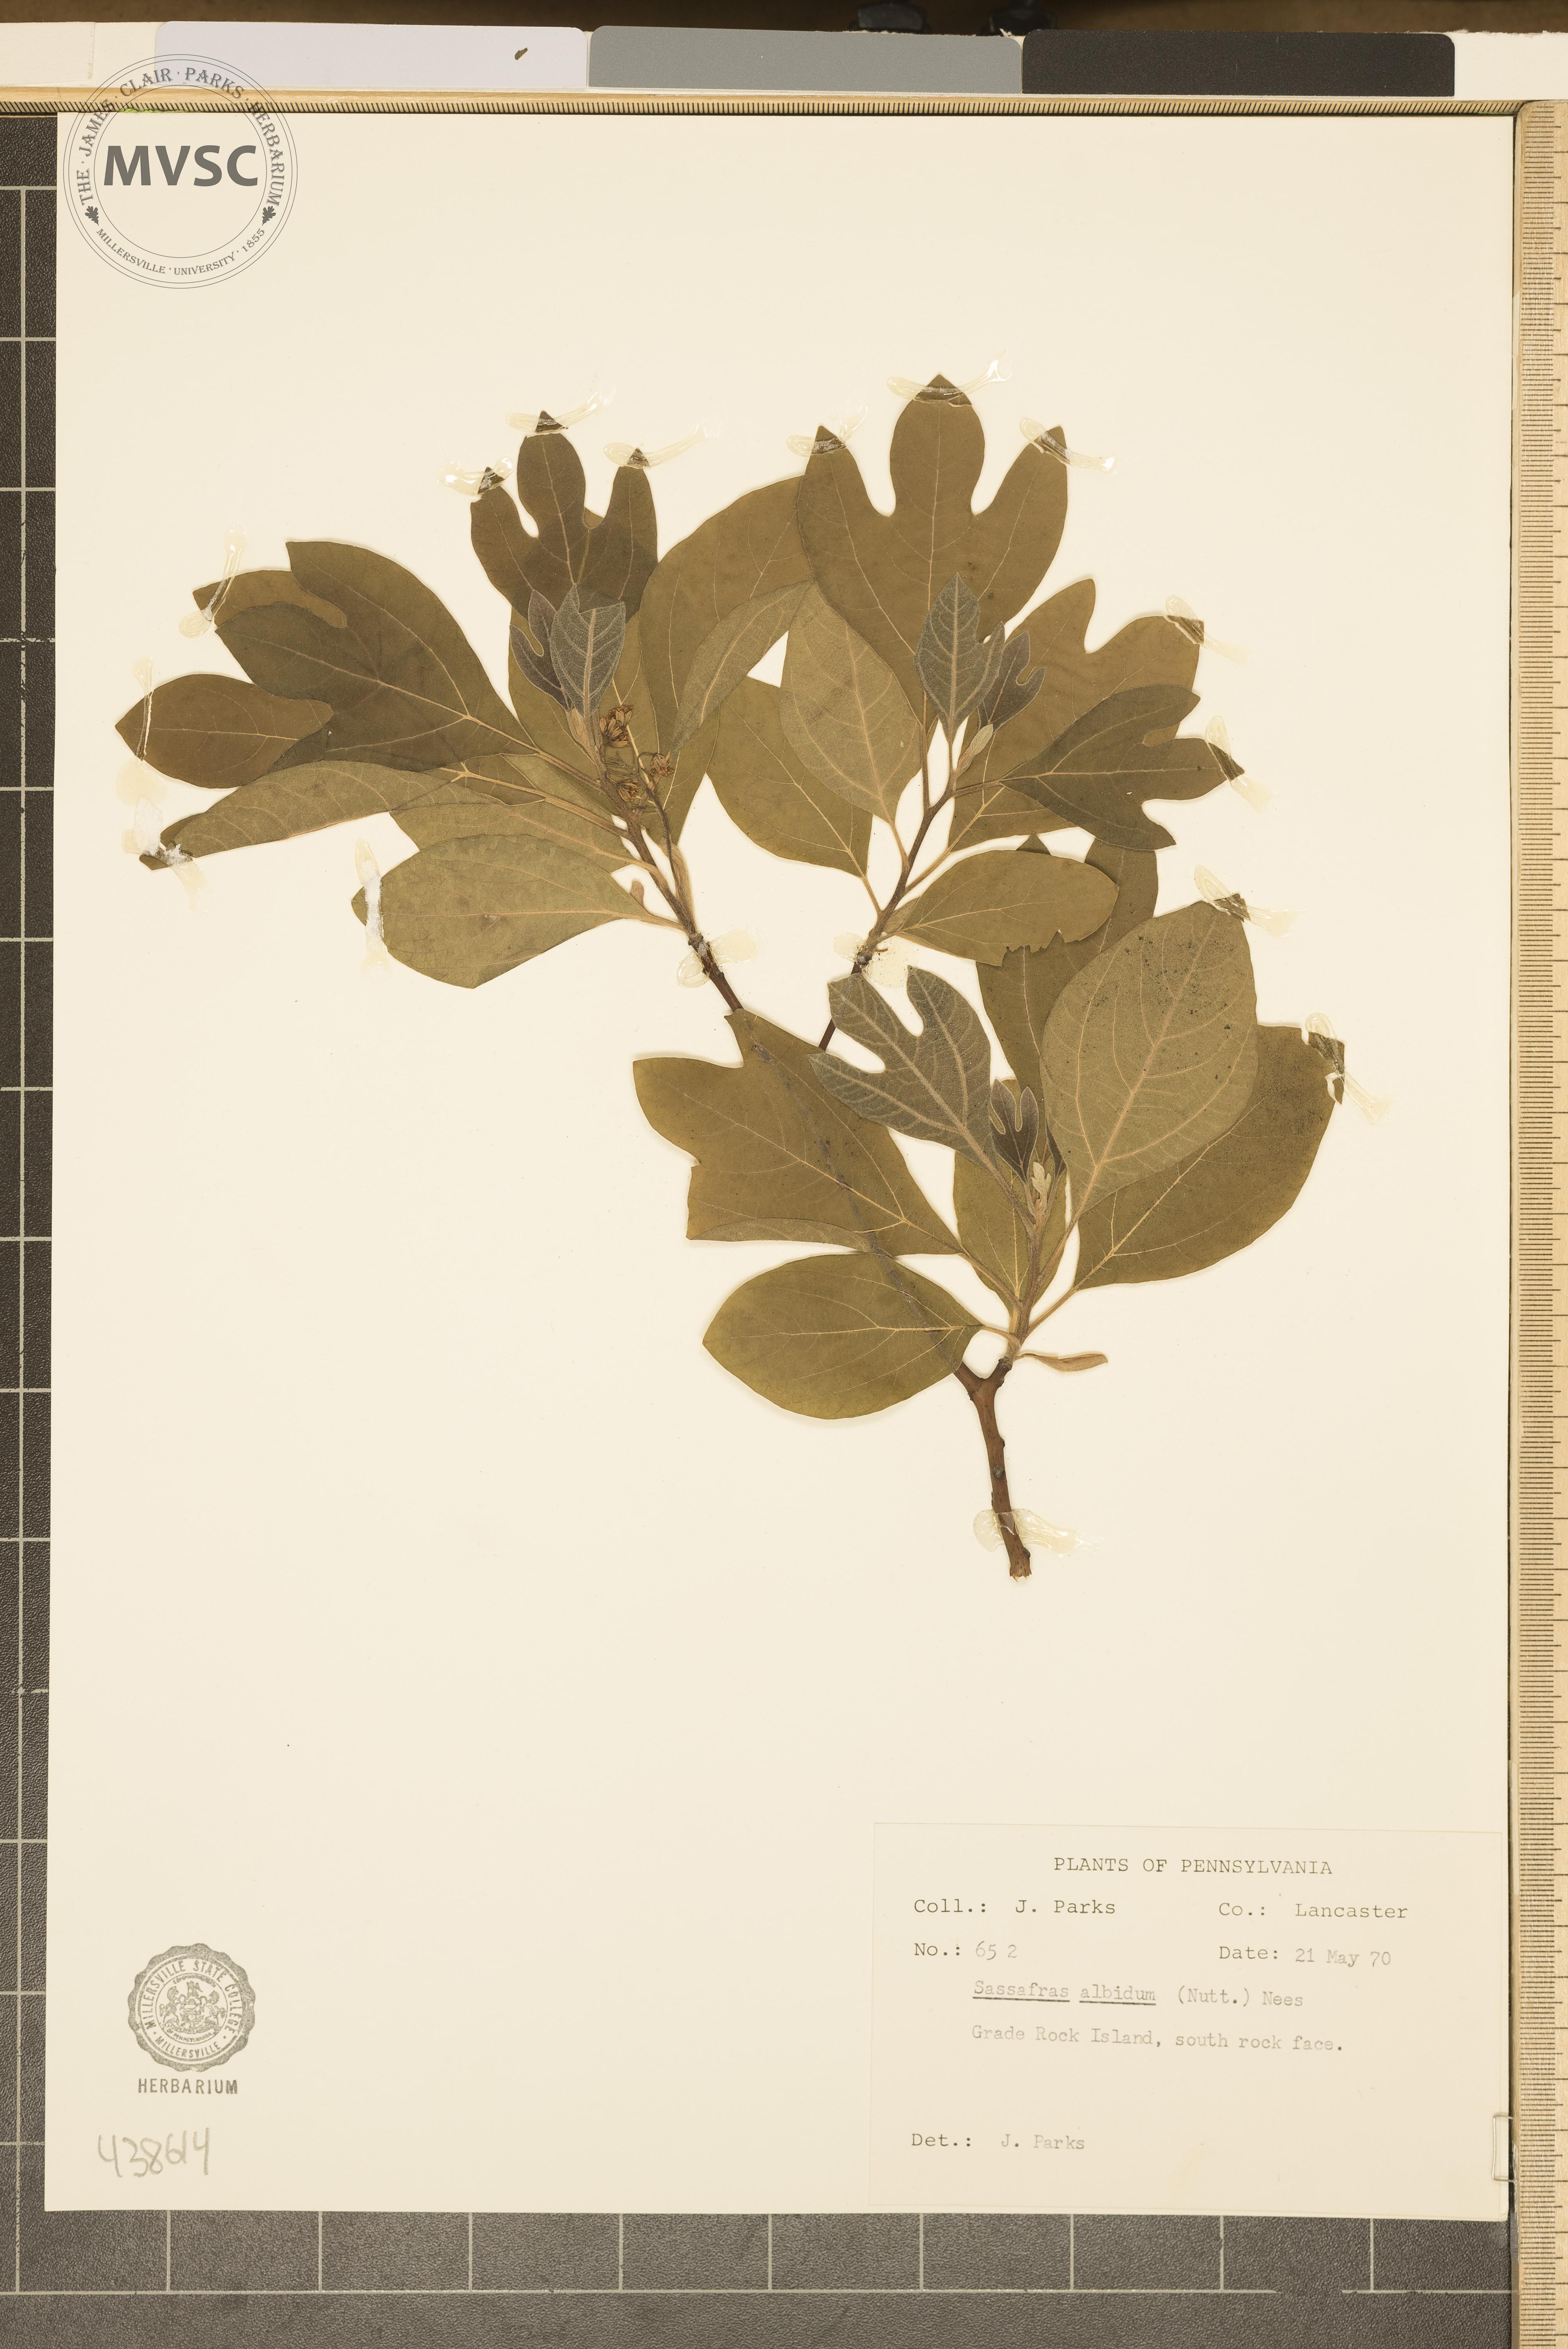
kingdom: Plantae
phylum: Tracheophyta
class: Magnoliopsida
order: Laurales
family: Lauraceae
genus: Sassafras
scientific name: Sassafras albidum
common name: Sassafras
